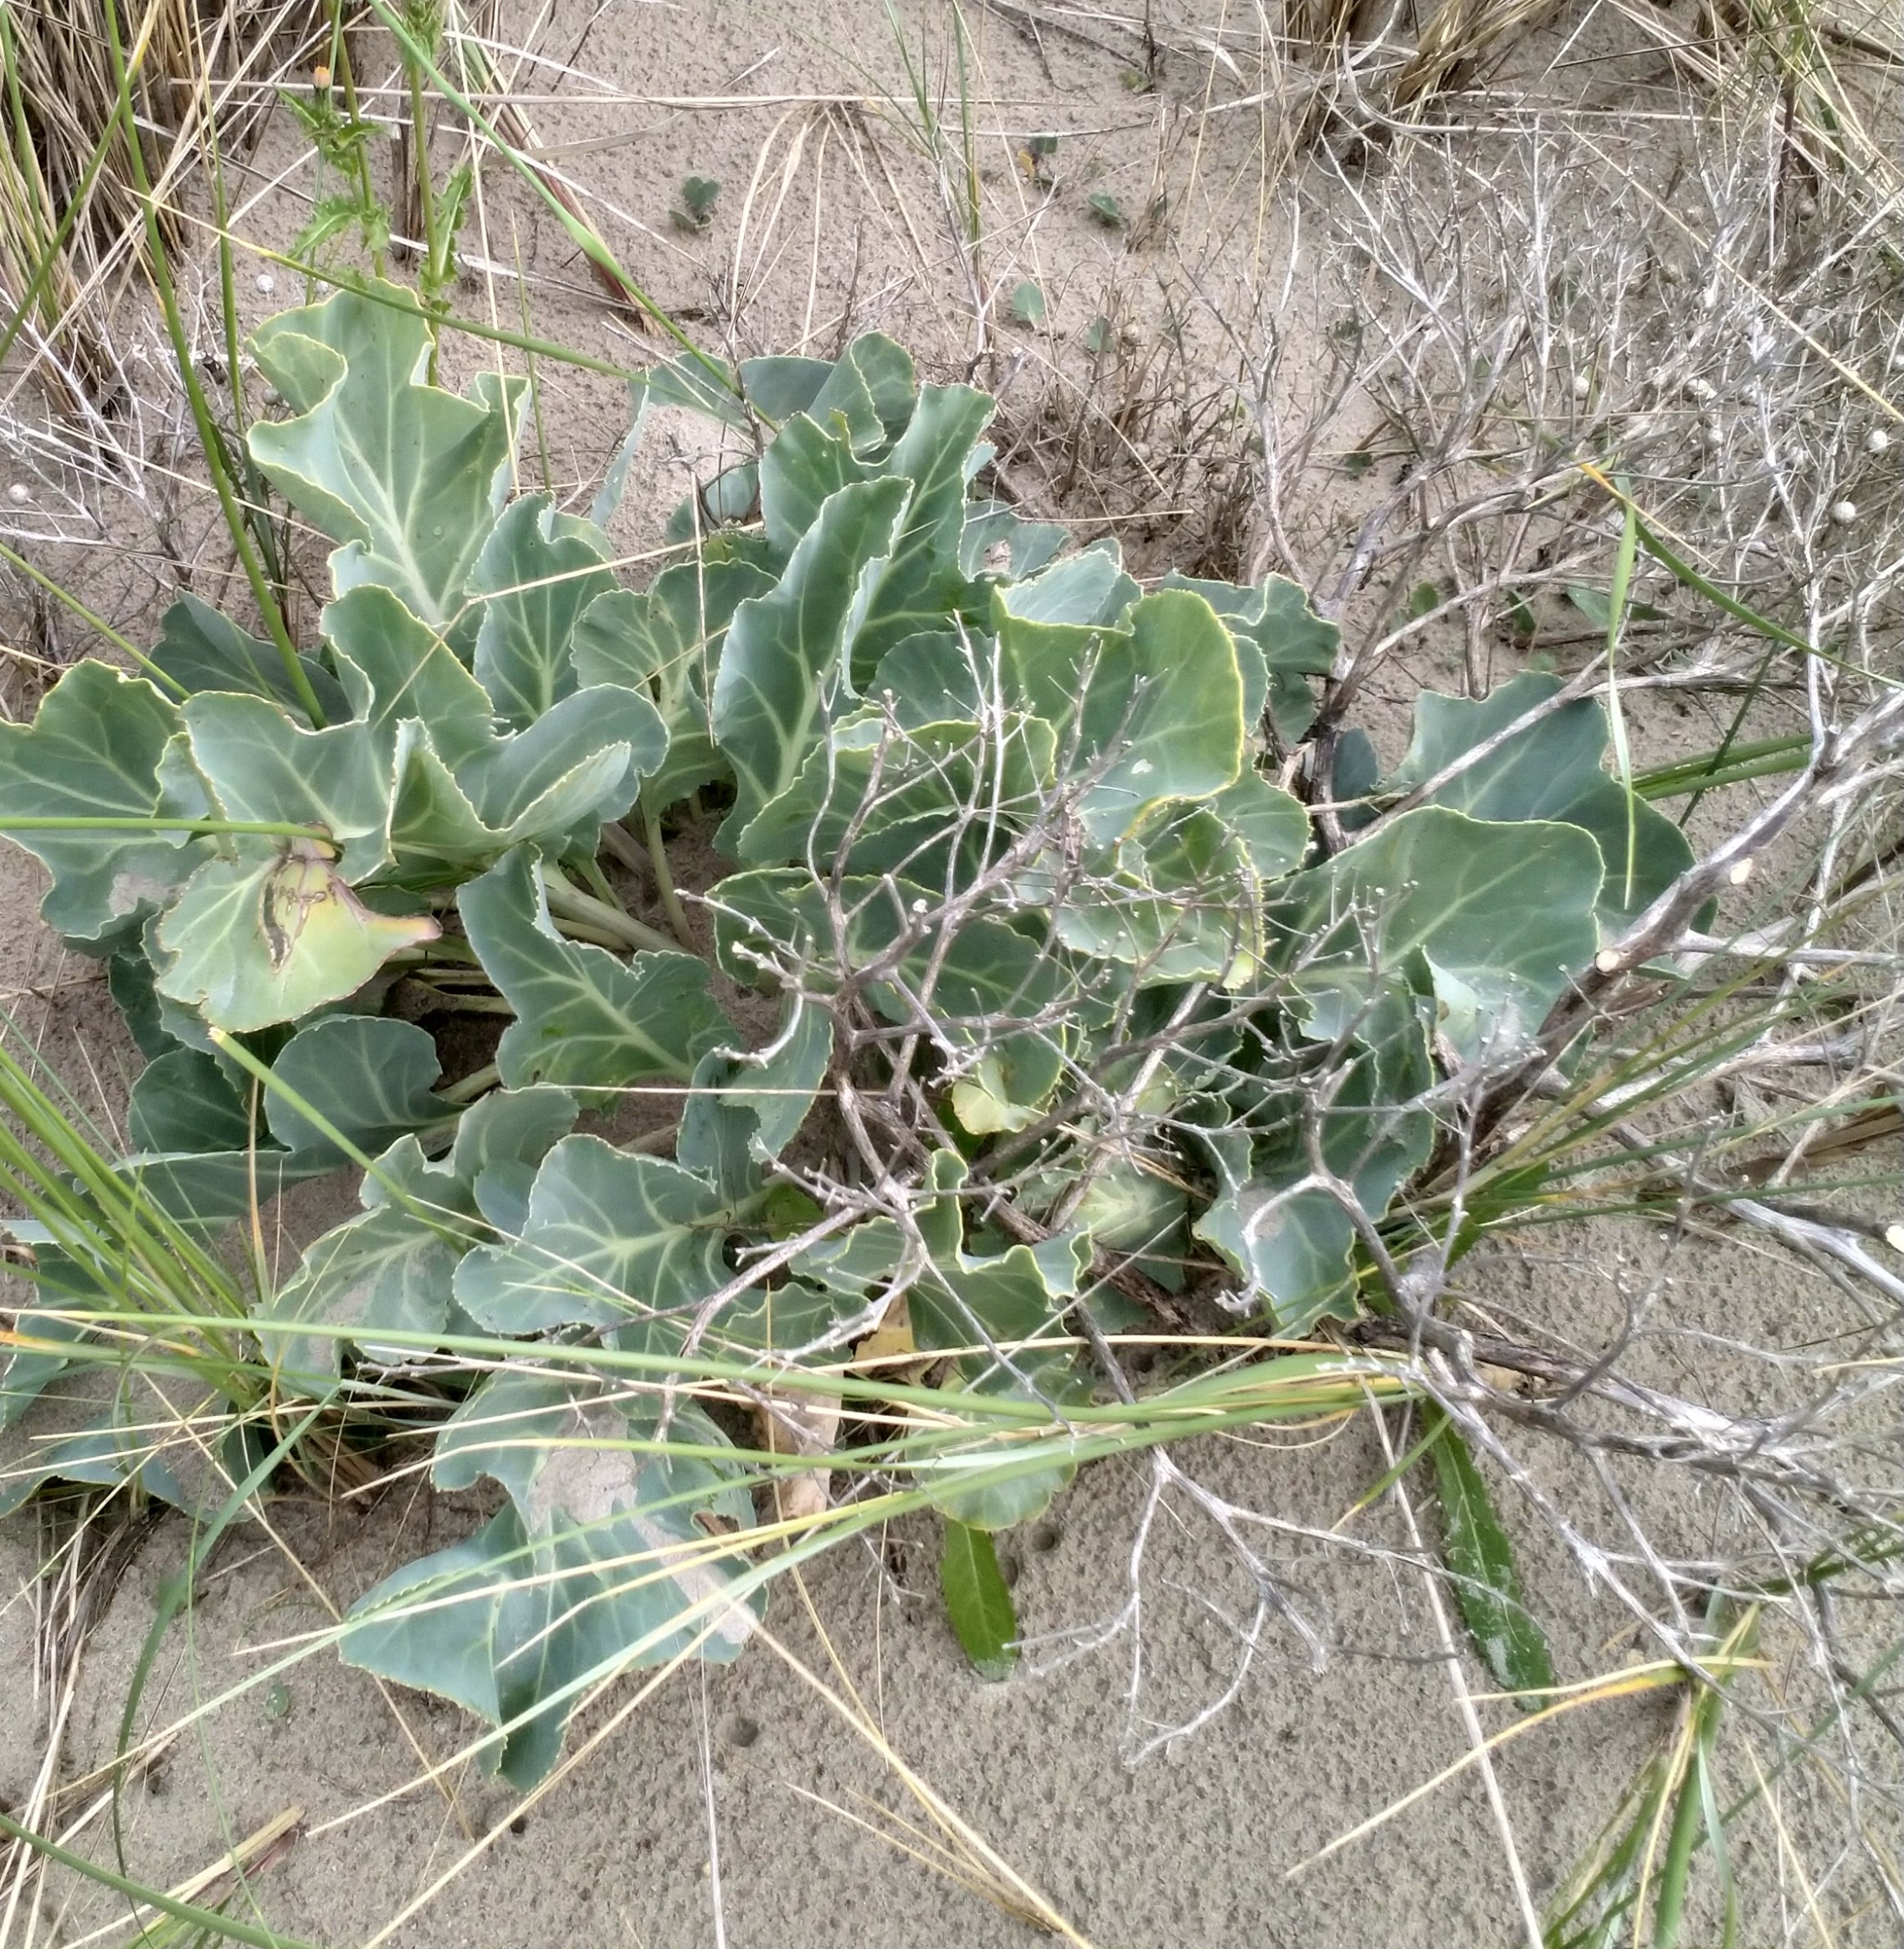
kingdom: Plantae
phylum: Tracheophyta
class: Magnoliopsida
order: Brassicales
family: Brassicaceae
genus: Crambe
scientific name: Crambe maritima
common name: Strandkål
